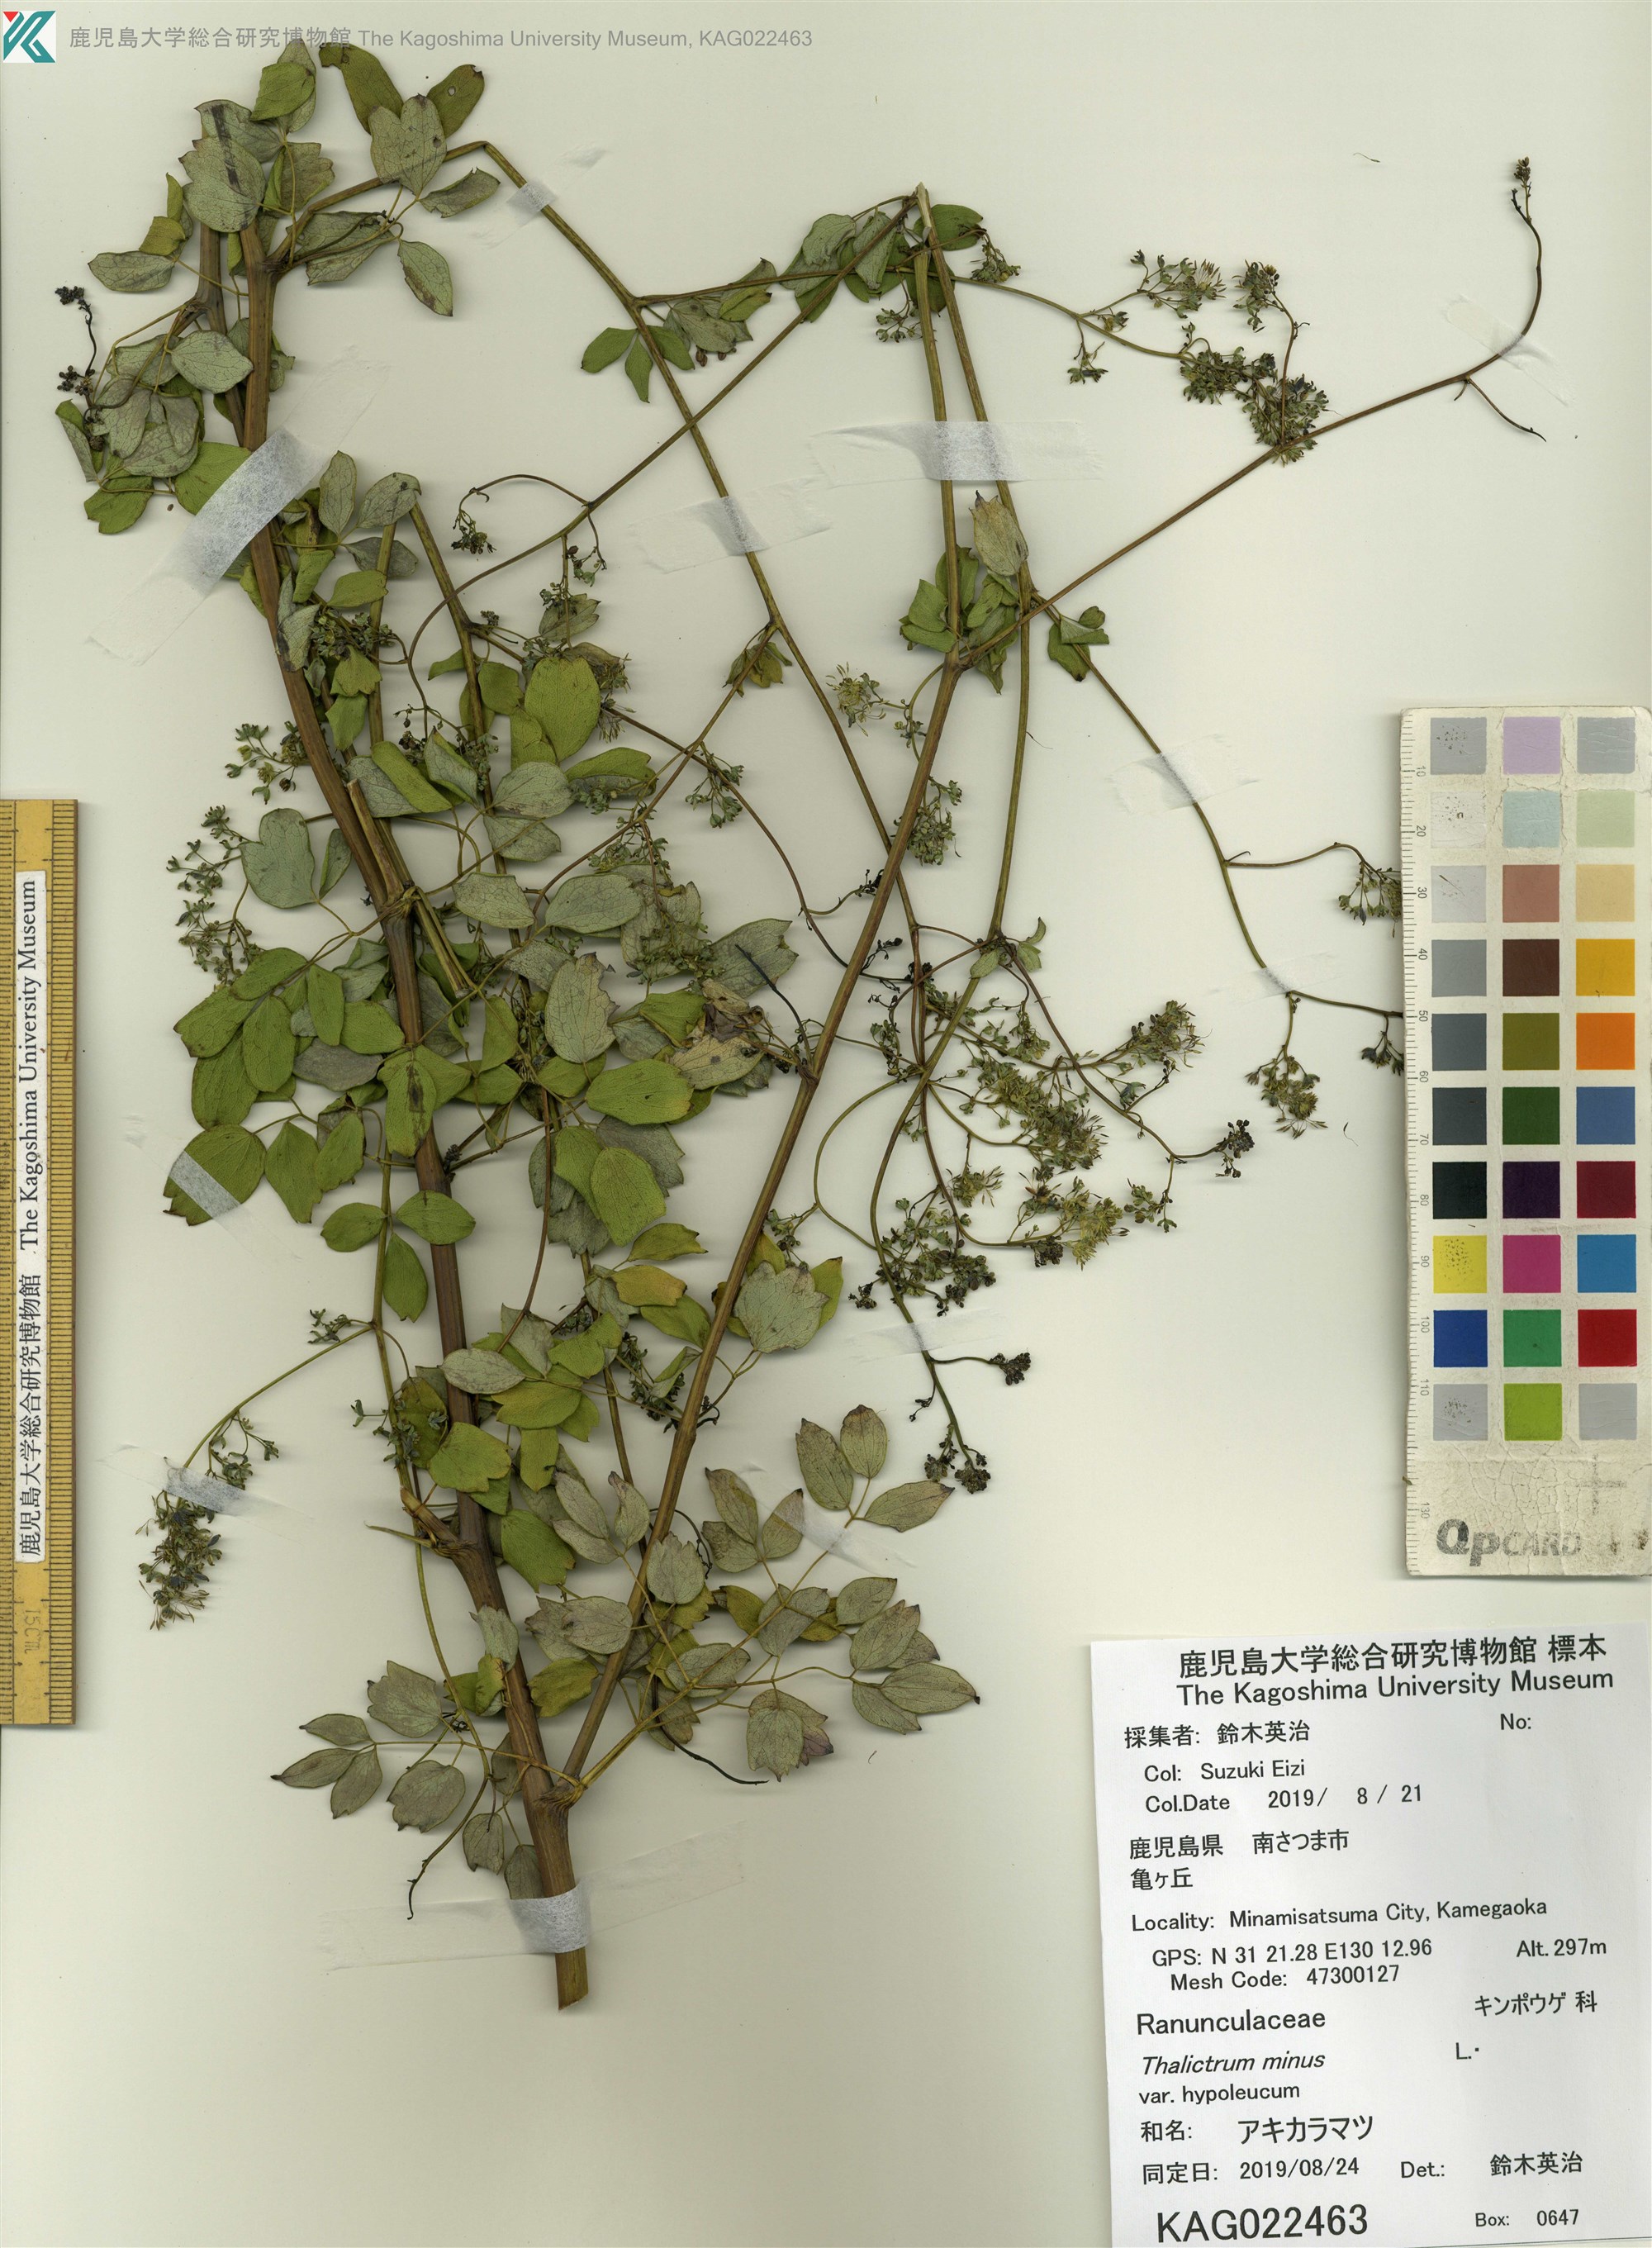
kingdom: Plantae
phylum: Tracheophyta
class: Magnoliopsida
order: Ranunculales
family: Ranunculaceae
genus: Thalictrum
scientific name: Thalictrum minus
